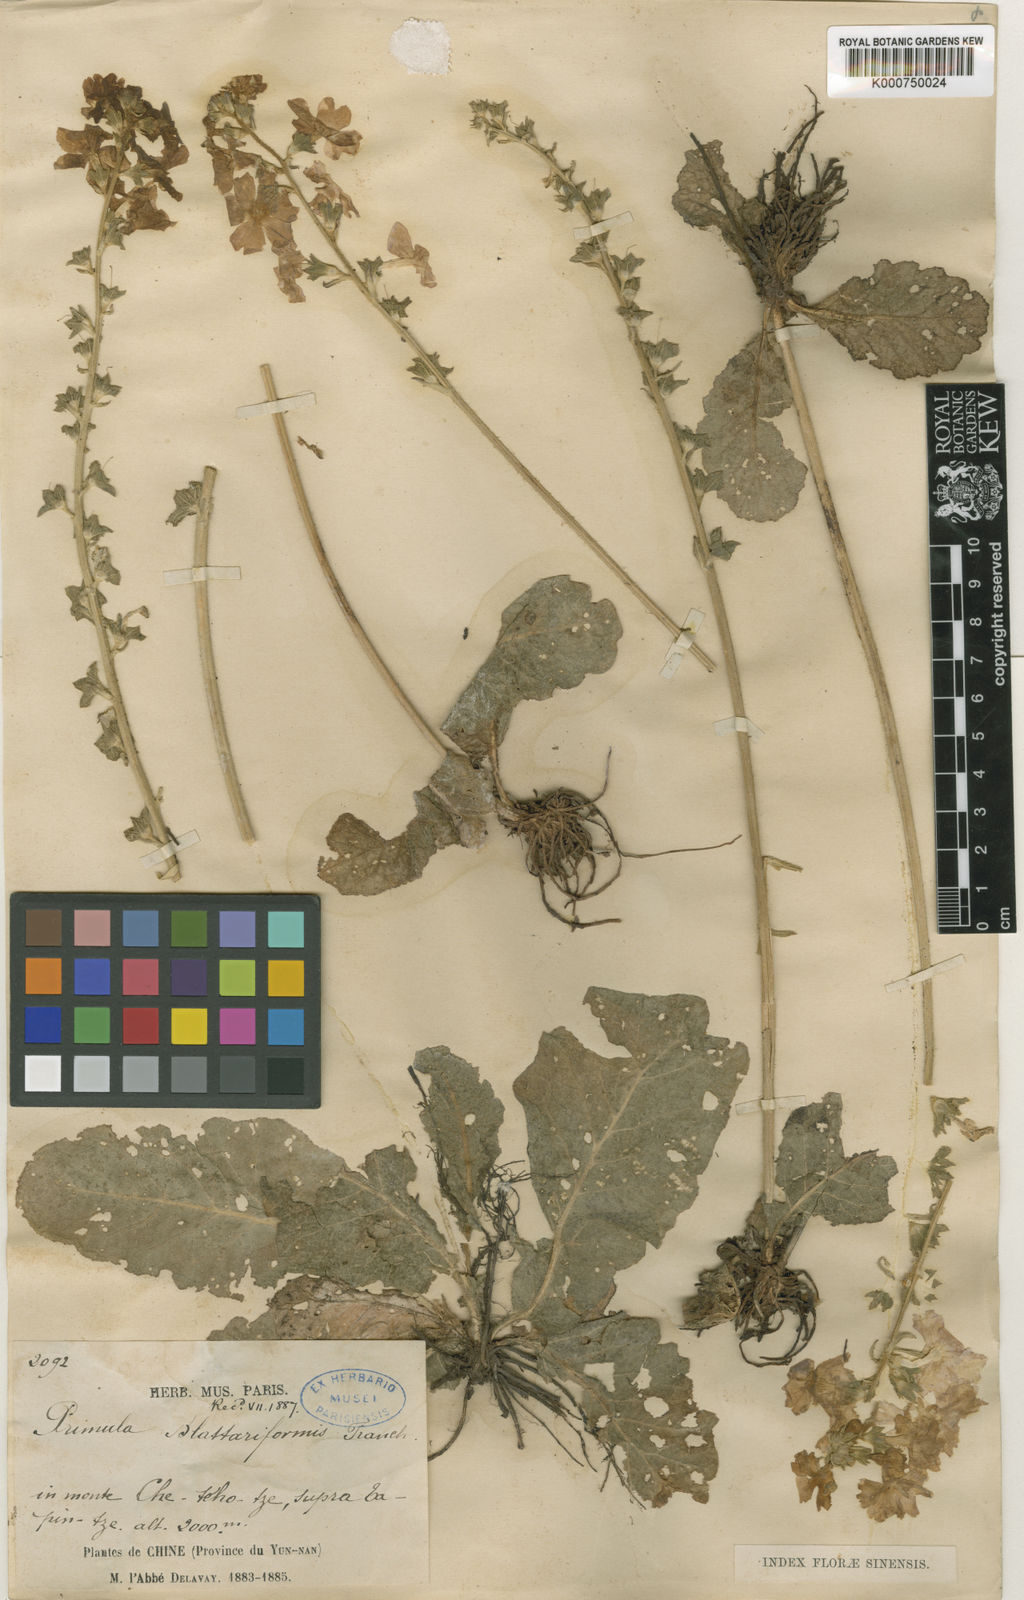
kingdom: Plantae
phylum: Tracheophyta
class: Magnoliopsida
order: Ericales
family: Primulaceae
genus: Primula
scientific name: Primula blattariformis
